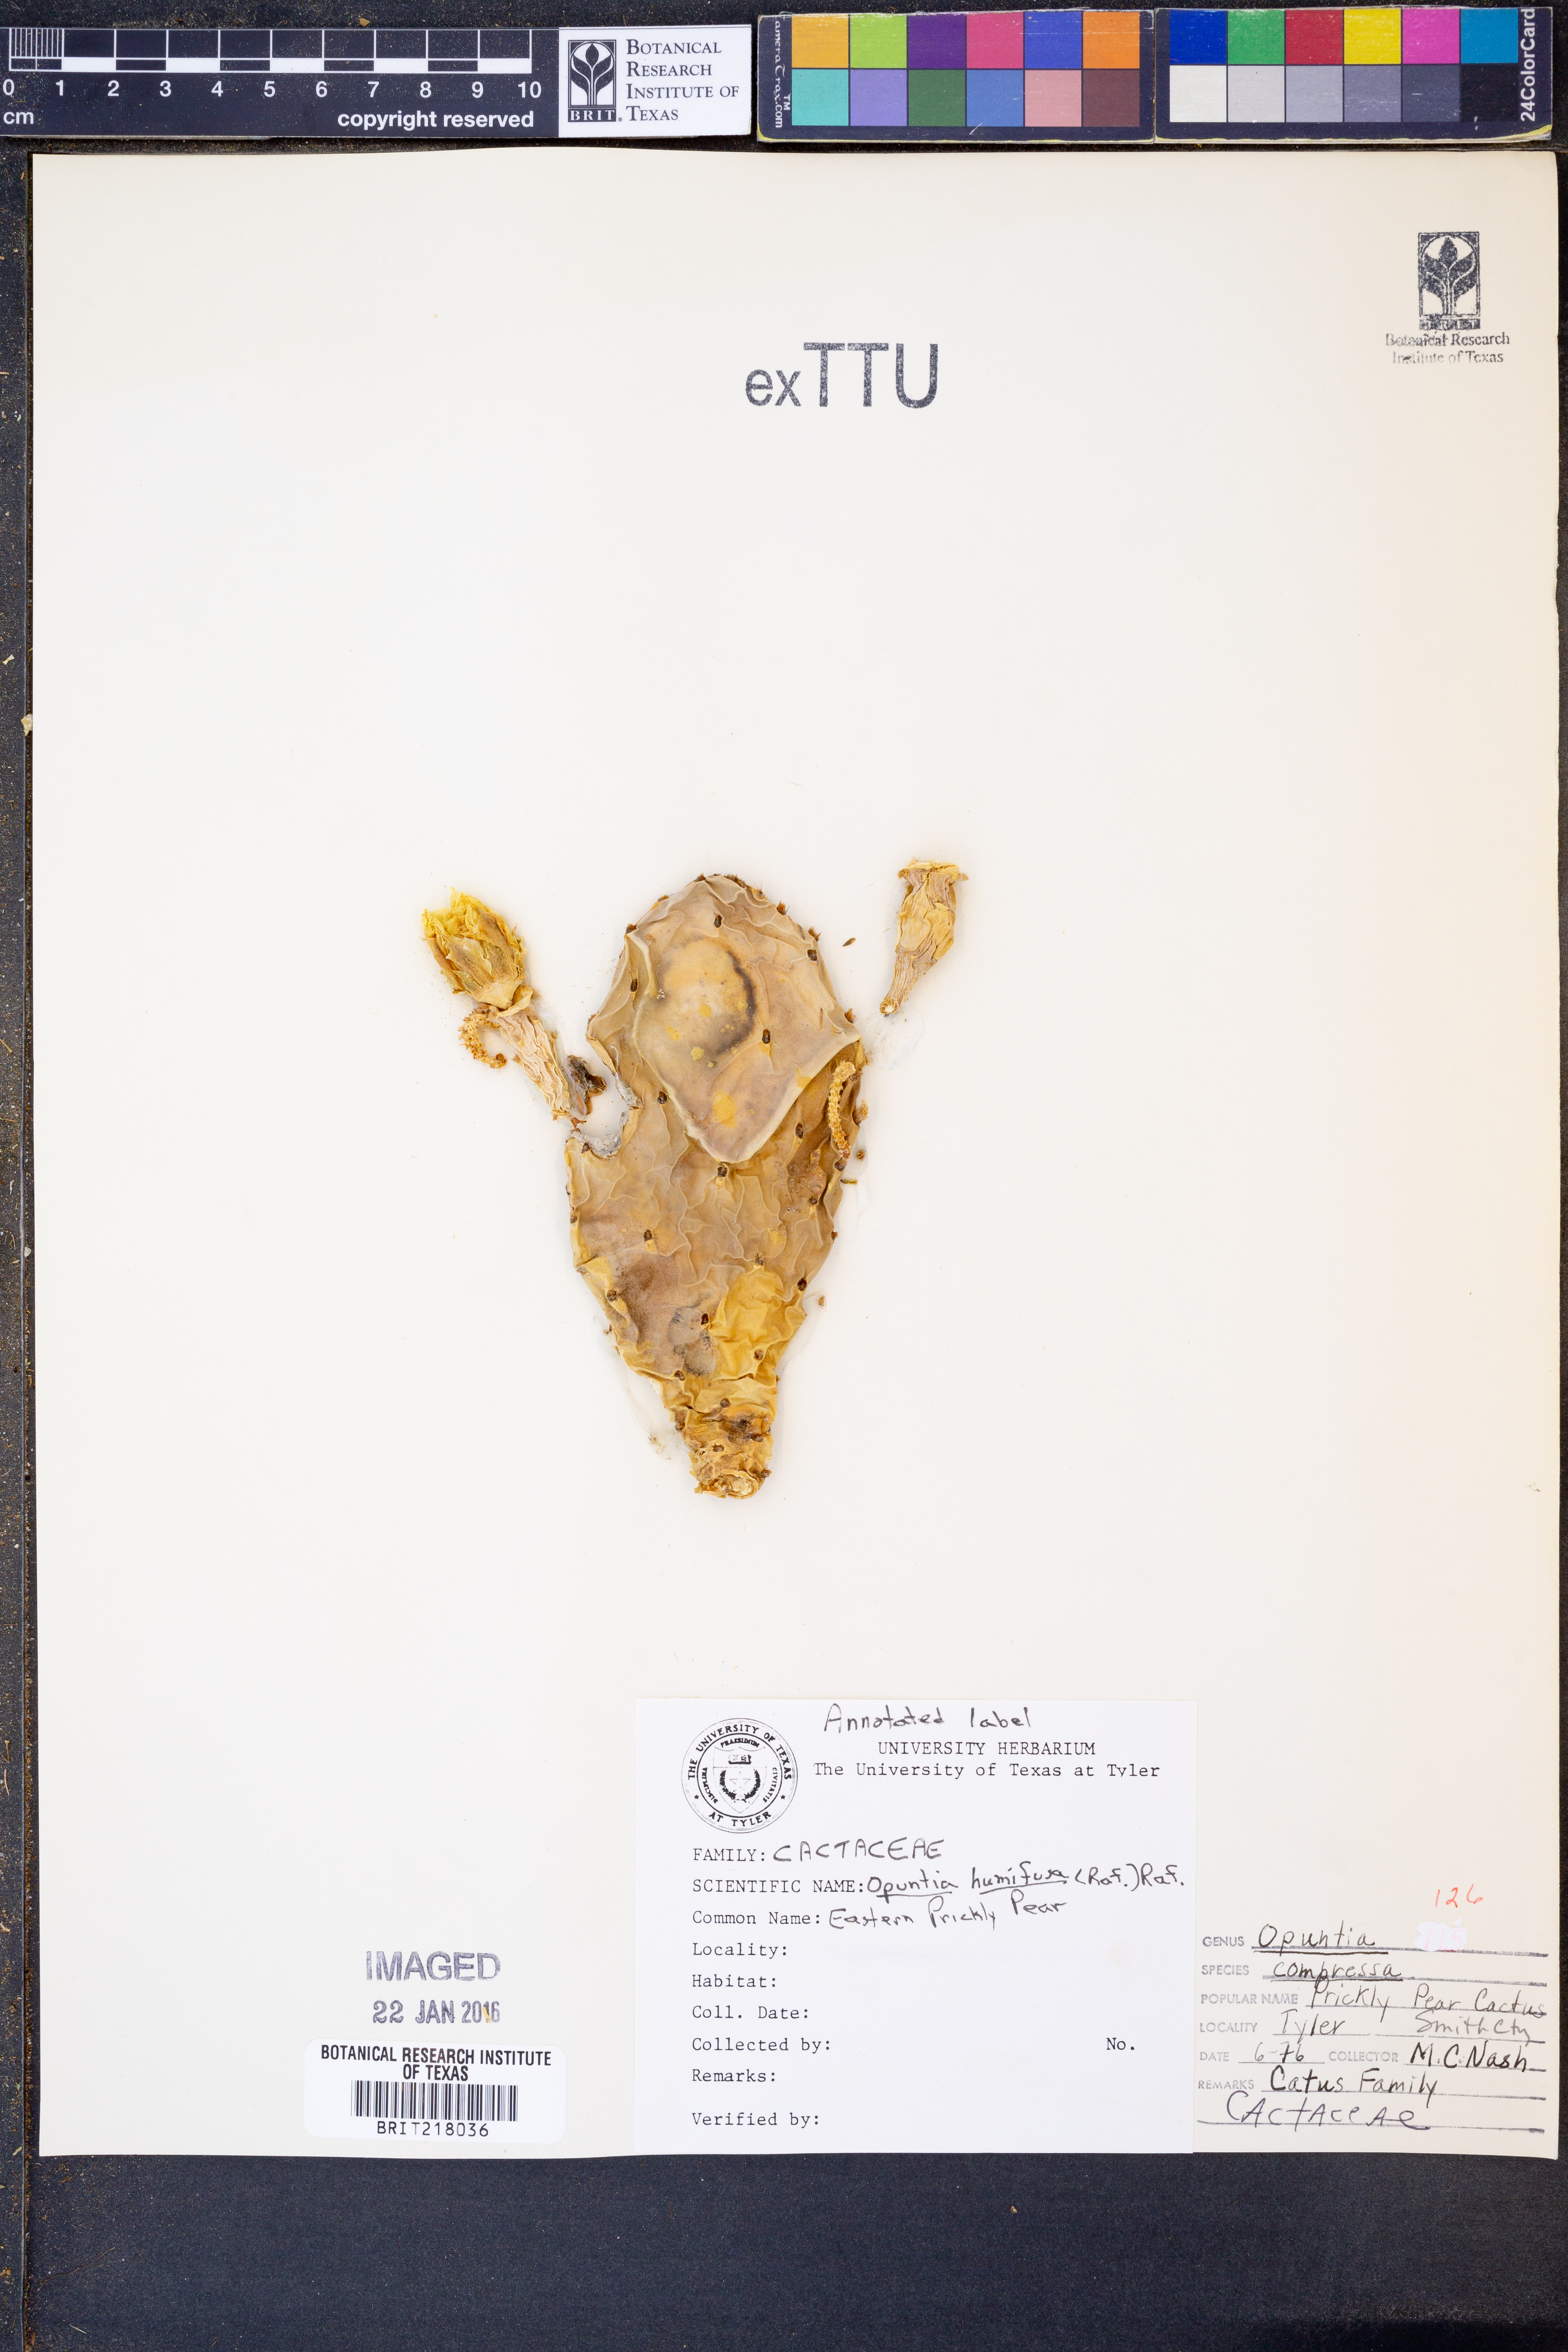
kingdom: Plantae
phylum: Tracheophyta
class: Magnoliopsida
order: Caryophyllales
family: Cactaceae
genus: Opuntia
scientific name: Opuntia macrorhiza
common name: Grassland pricklypear
